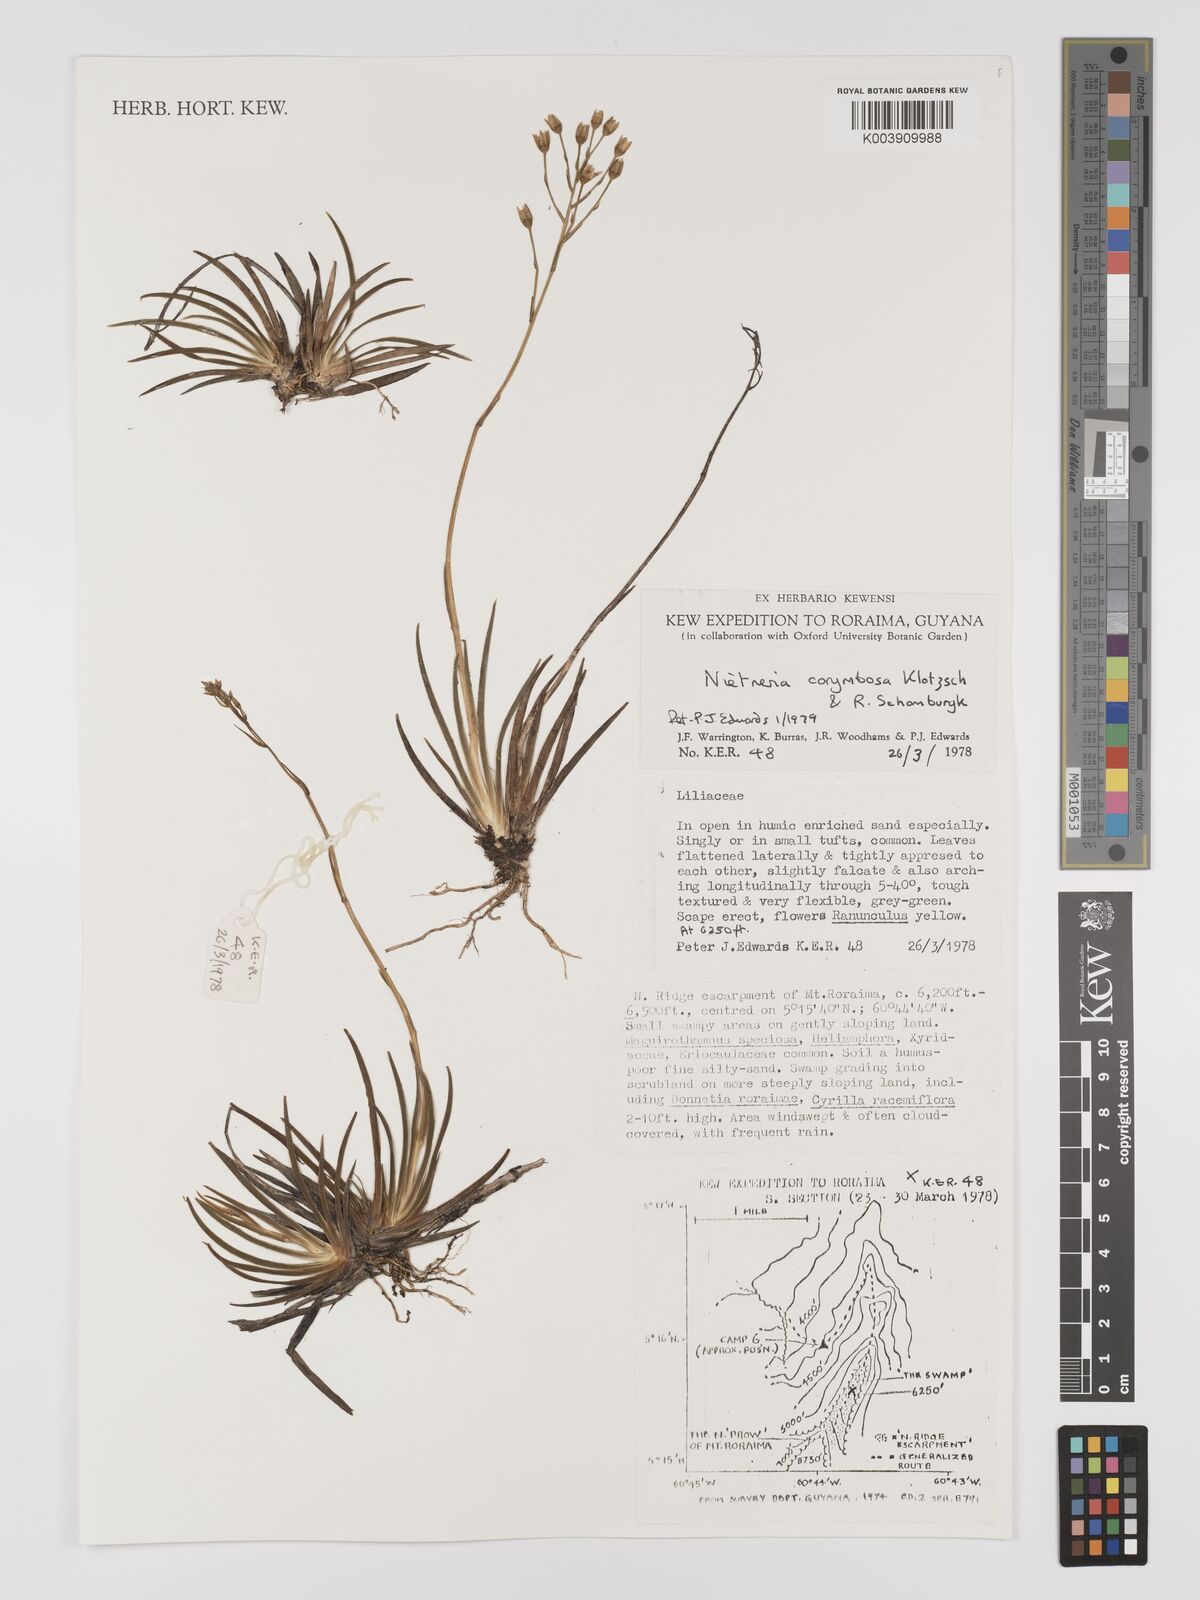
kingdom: Plantae
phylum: Tracheophyta
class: Liliopsida
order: Dioscoreales
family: Nartheciaceae
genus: Nietneria
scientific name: Nietneria corymbosa
